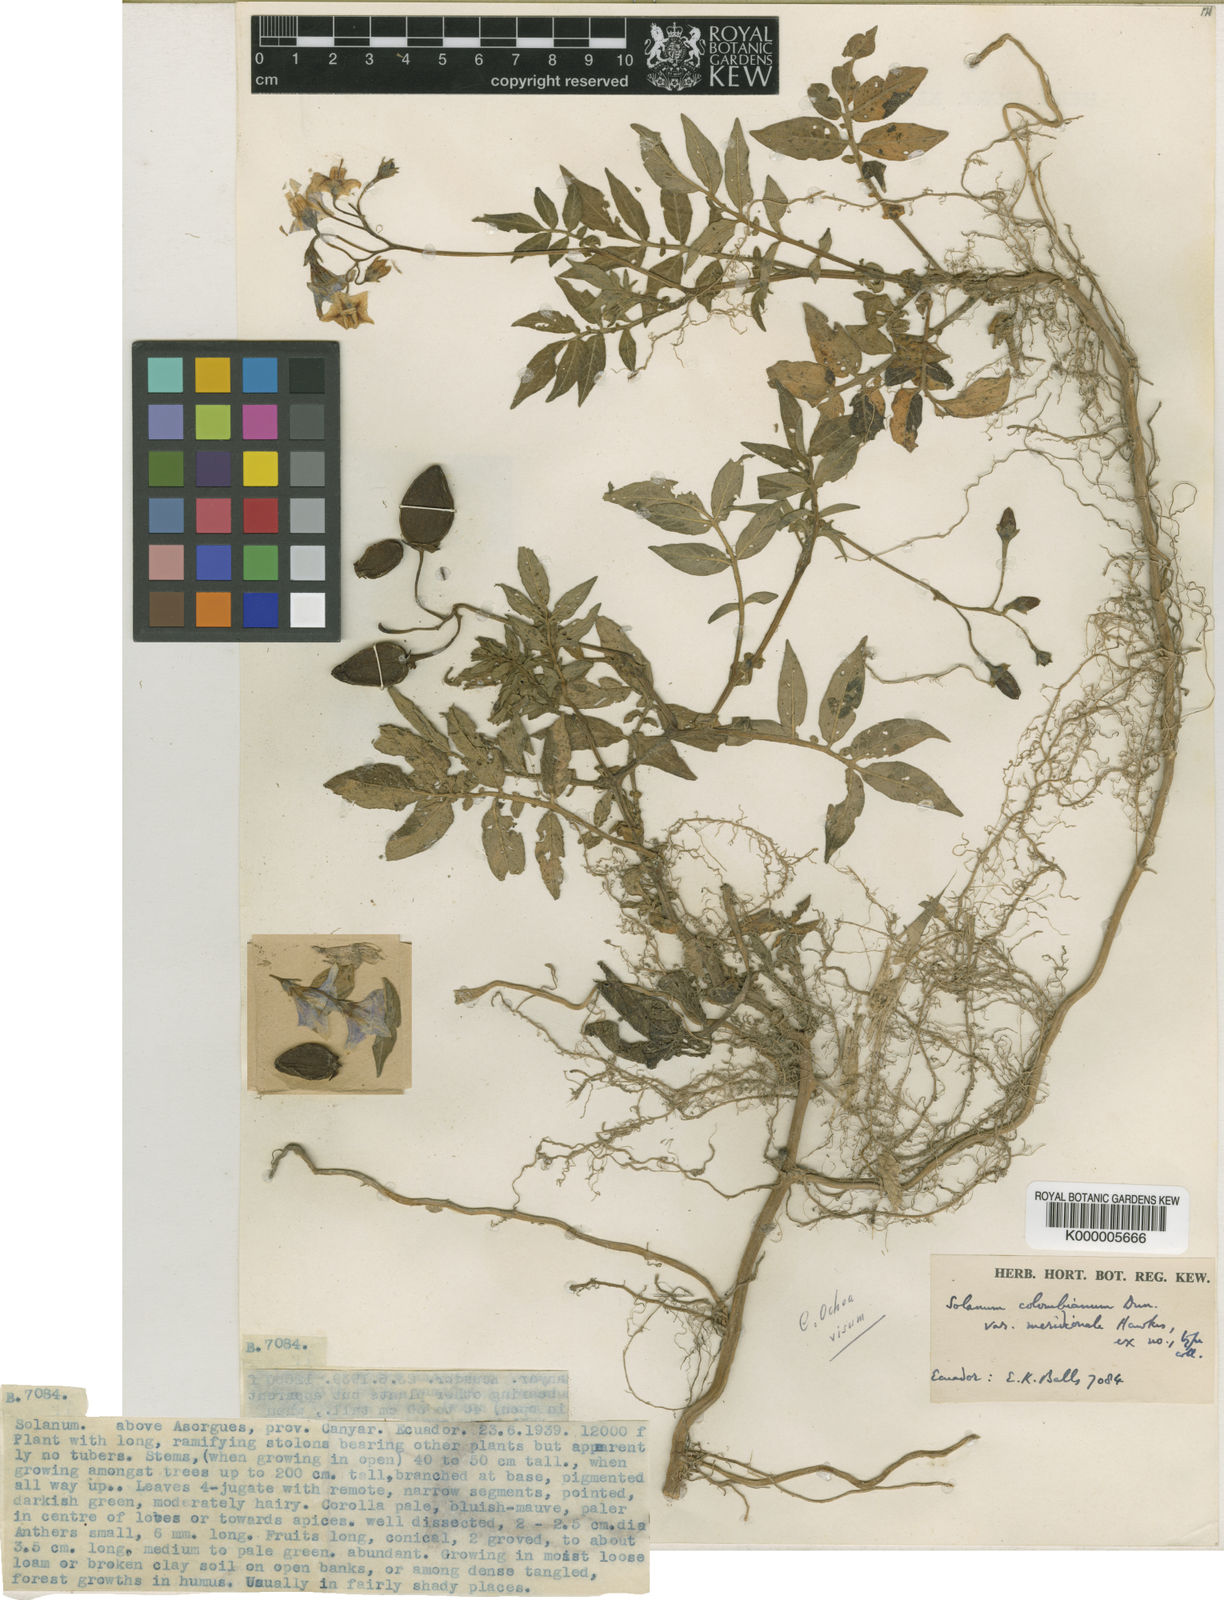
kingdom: Plantae
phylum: Tracheophyta
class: Magnoliopsida
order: Solanales
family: Solanaceae
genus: Solanum
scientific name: Solanum colombianum
